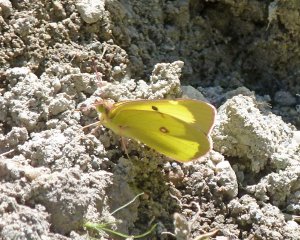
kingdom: Animalia
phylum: Arthropoda
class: Insecta
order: Lepidoptera
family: Pieridae
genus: Colias
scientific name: Colias philodice
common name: Clouded Sulphur
